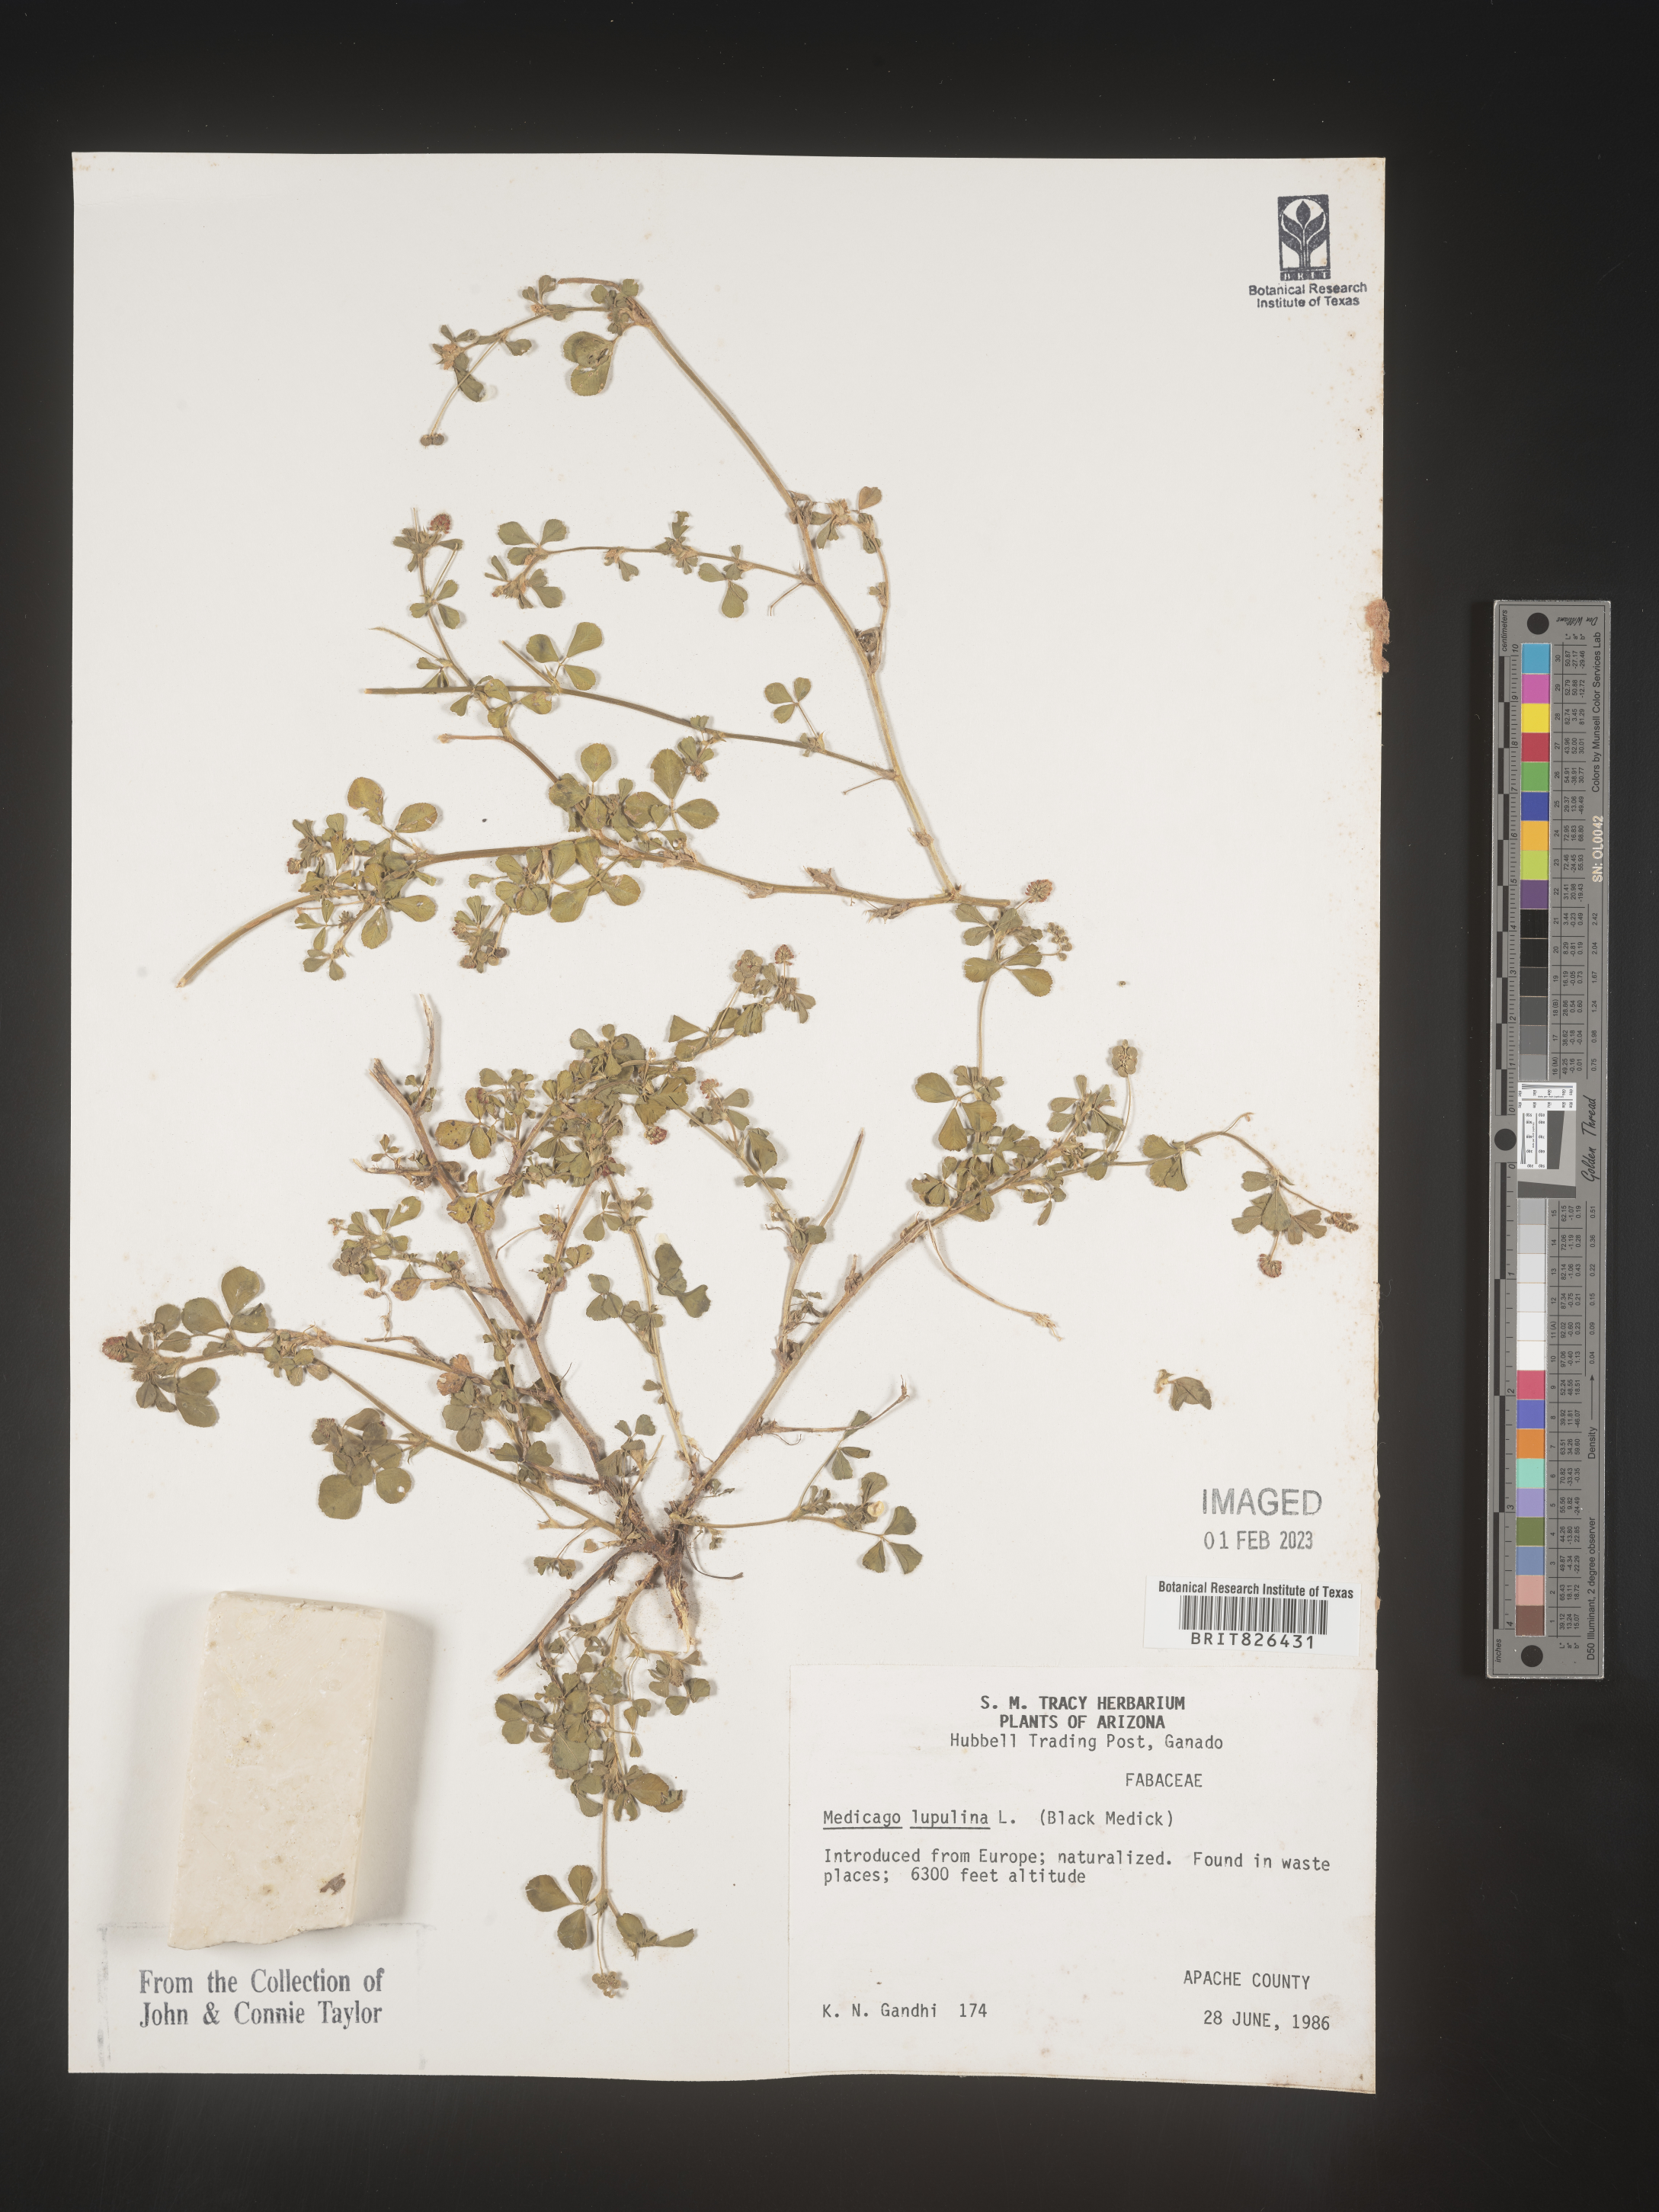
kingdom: Plantae
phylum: Tracheophyta
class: Magnoliopsida
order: Fabales
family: Fabaceae
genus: Medicago
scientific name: Medicago lupulina
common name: Black medick
